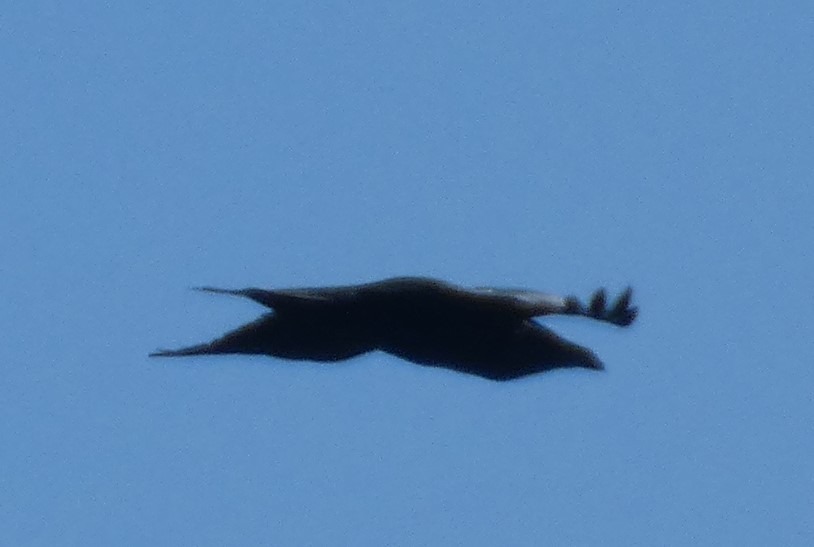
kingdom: Animalia
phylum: Chordata
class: Aves
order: Passeriformes
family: Corvidae
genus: Corvus
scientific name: Corvus corax
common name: Ravn
